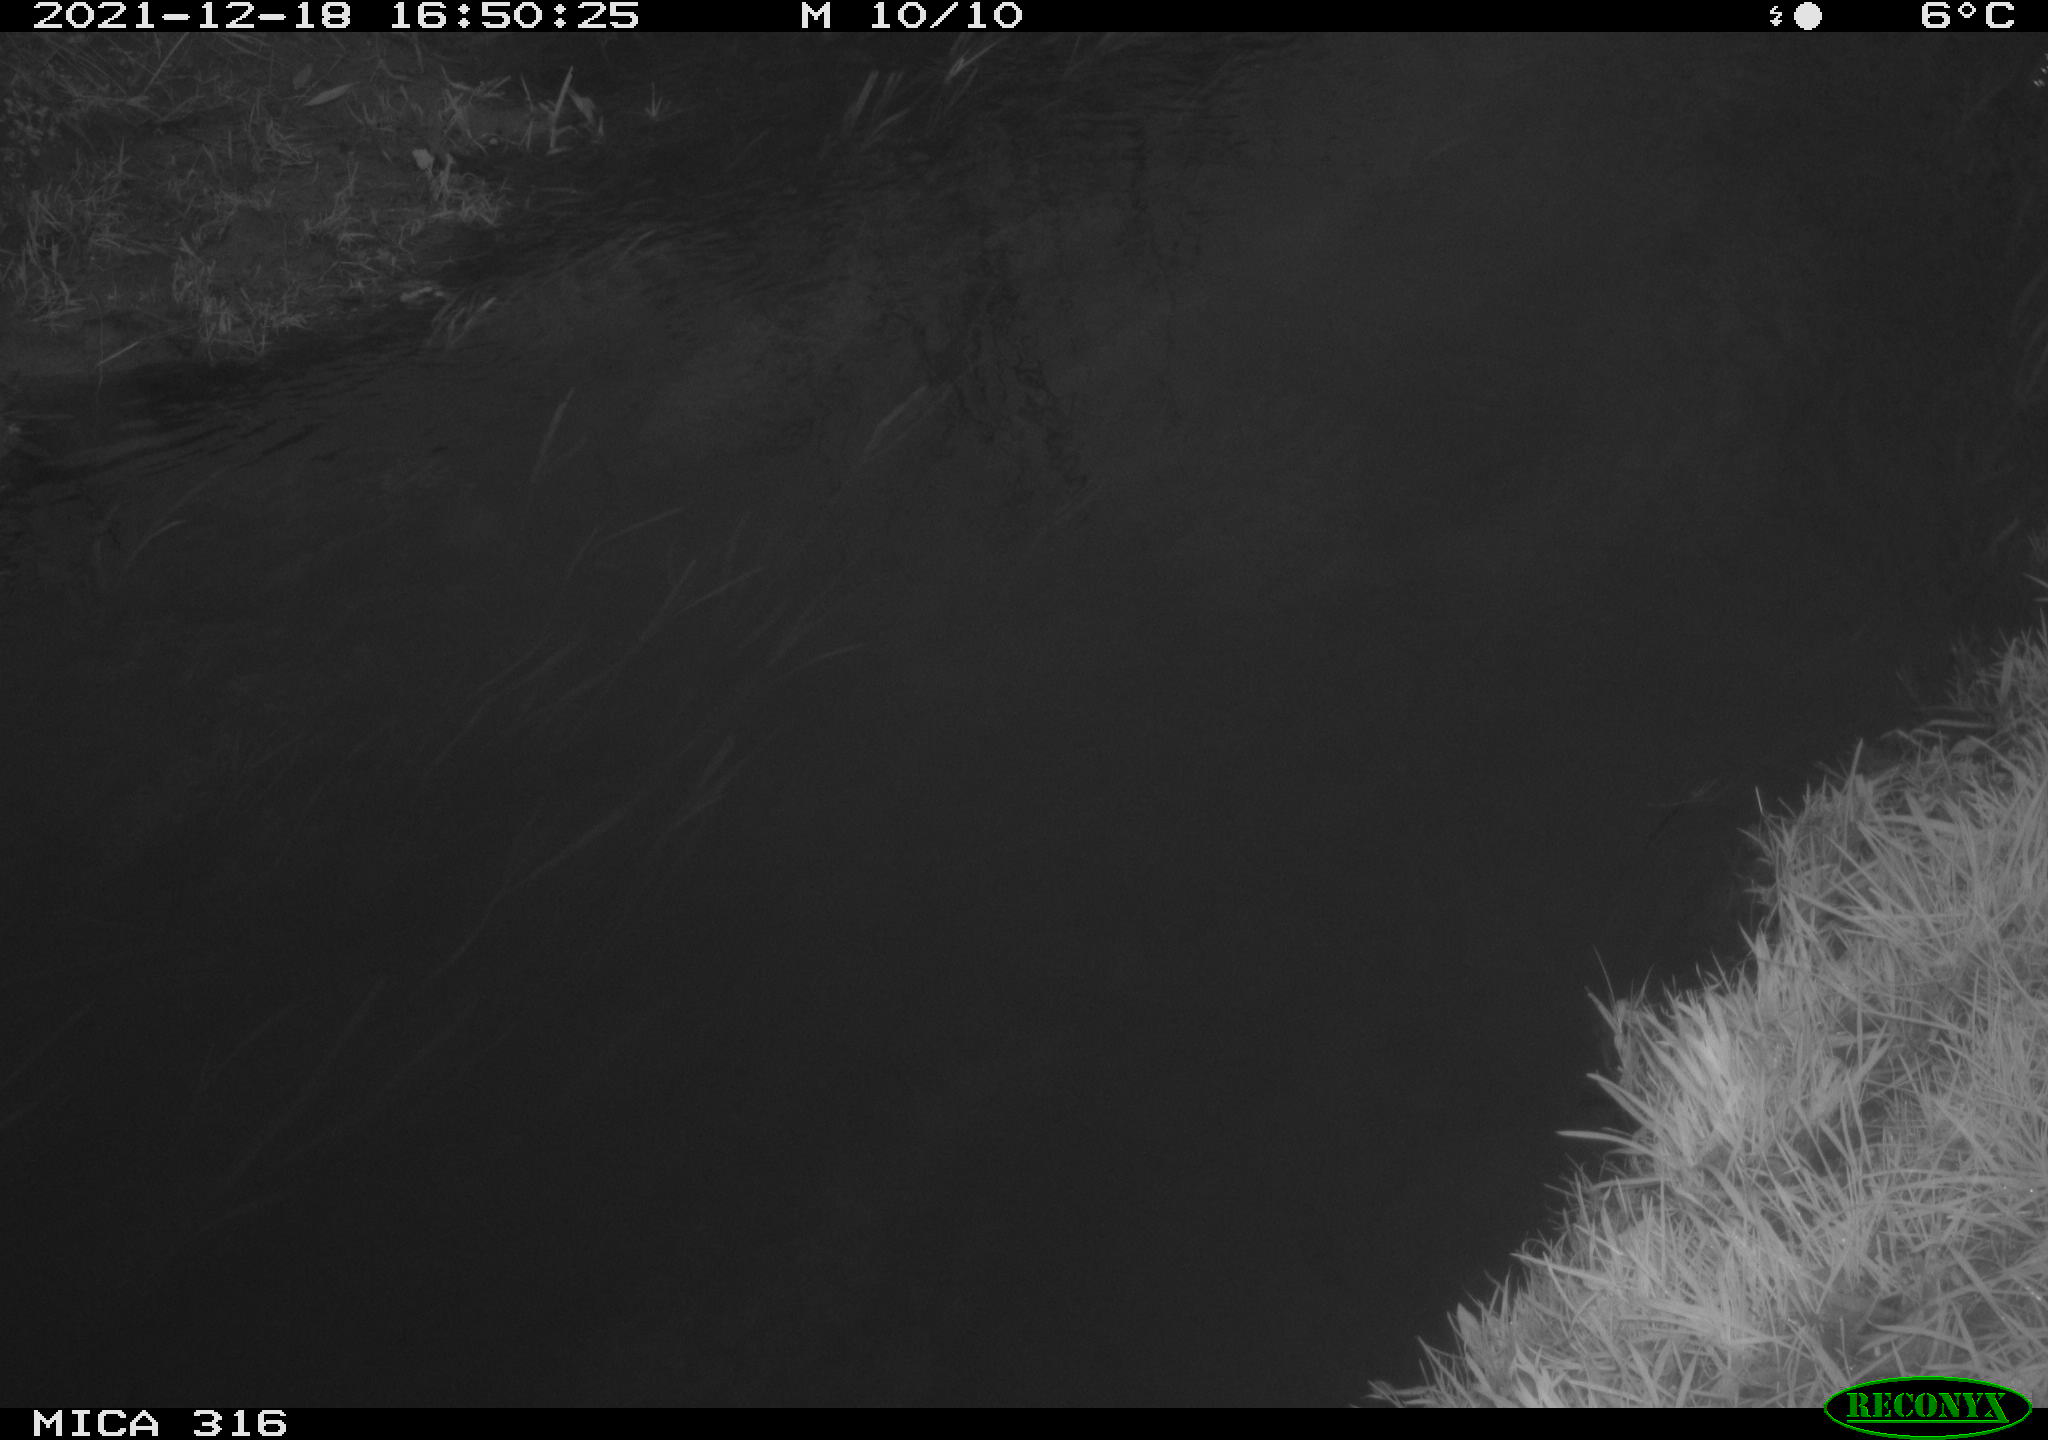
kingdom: Animalia
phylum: Chordata
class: Aves
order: Podicipediformes
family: Podicipedidae
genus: Tachybaptus
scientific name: Tachybaptus ruficollis
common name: Little grebe
